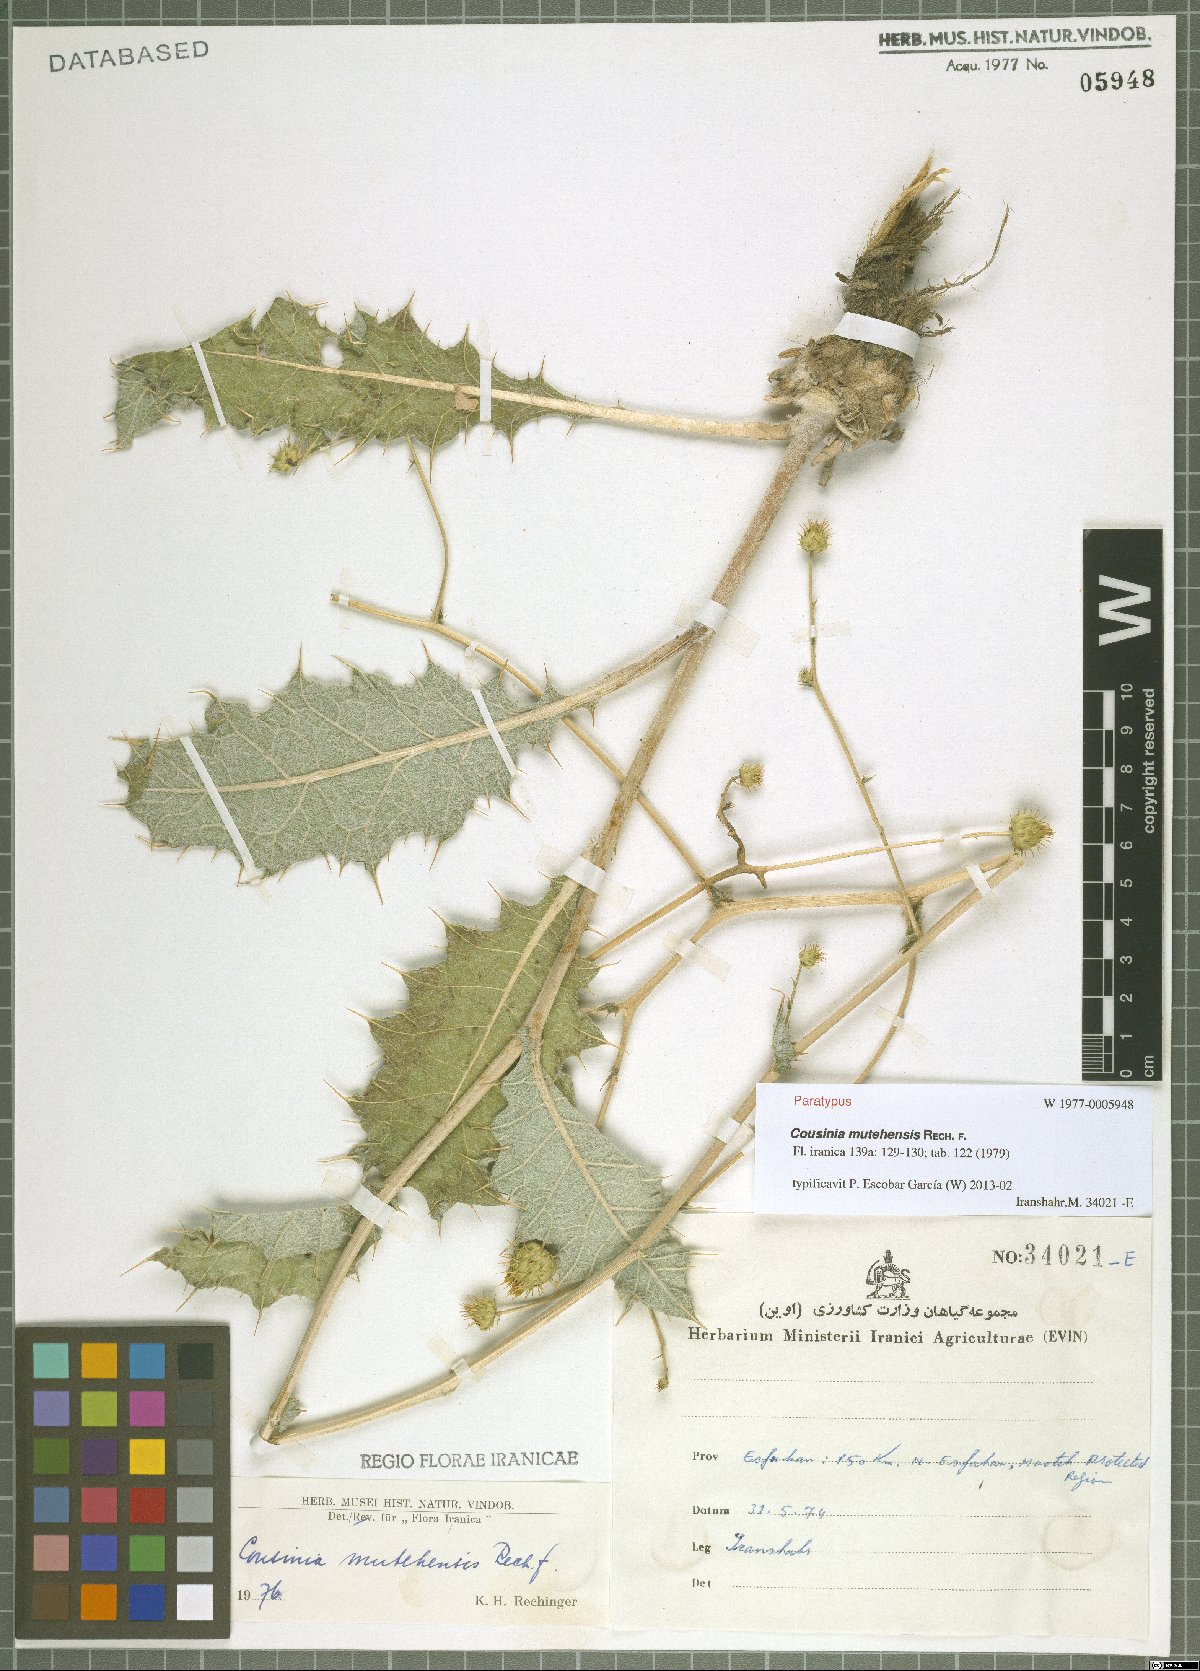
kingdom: Plantae
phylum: Tracheophyta
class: Magnoliopsida
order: Asterales
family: Asteraceae
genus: Cousinia
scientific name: Cousinia mutehensis
